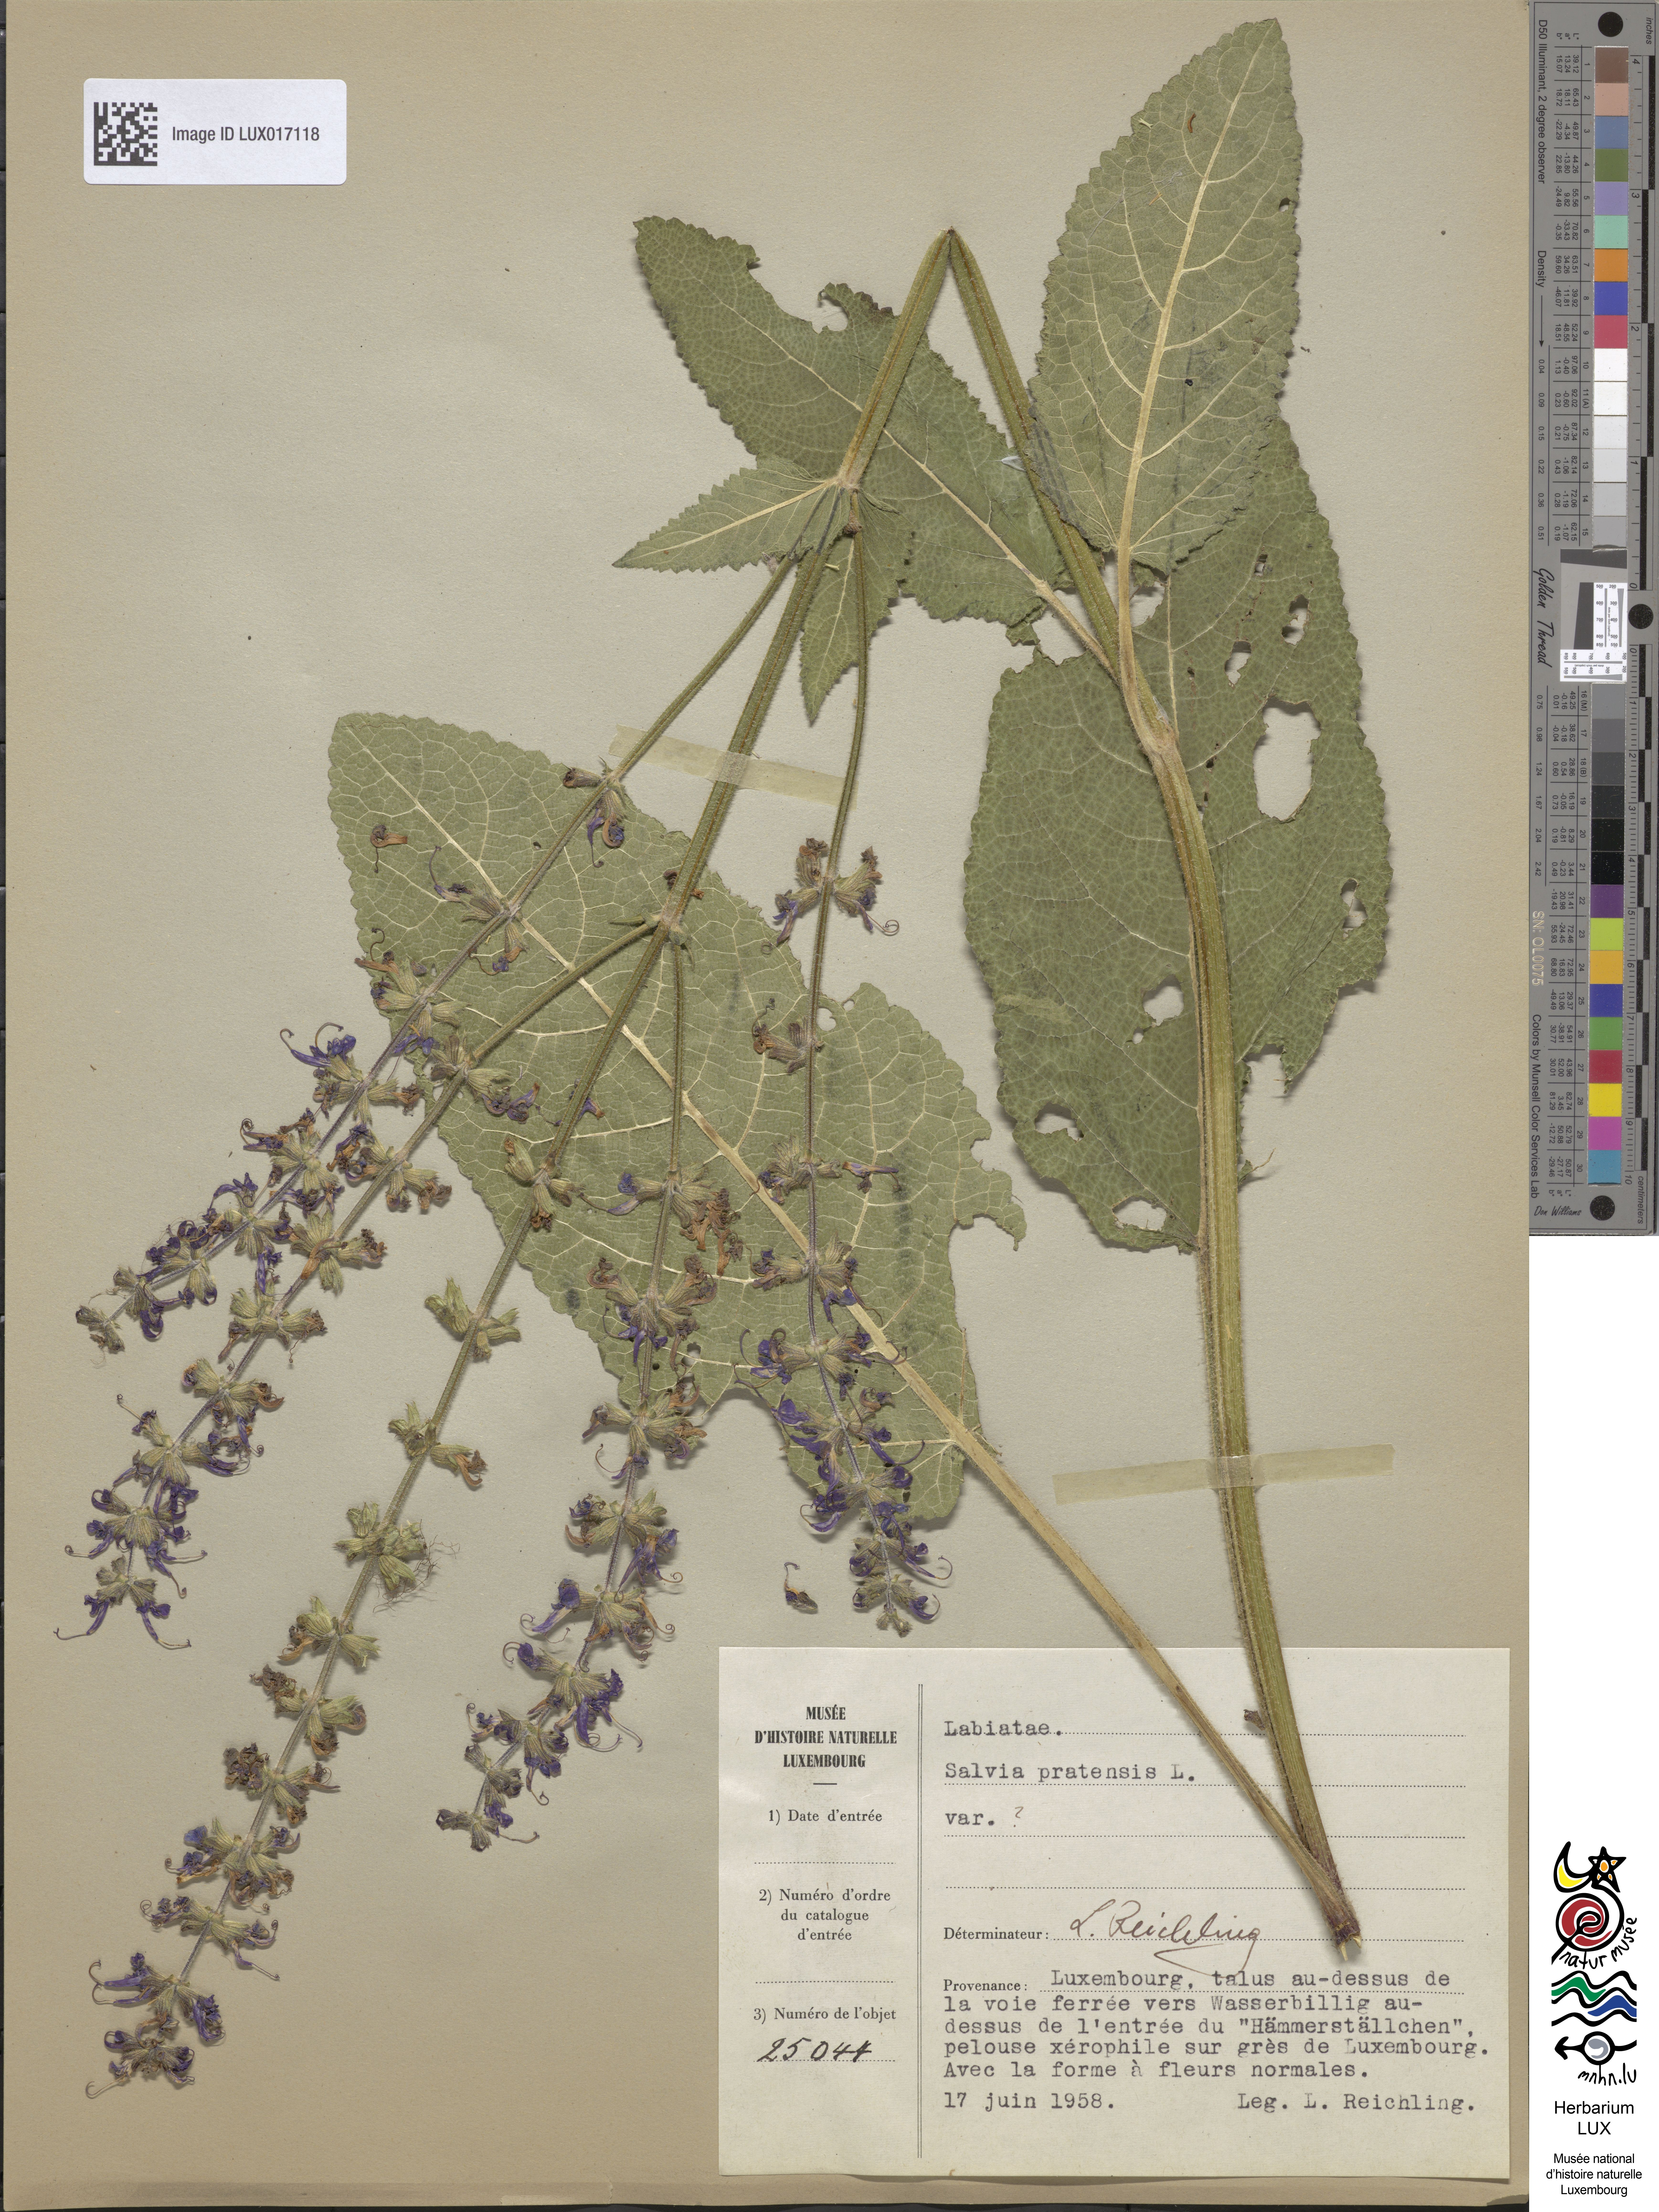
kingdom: Plantae
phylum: Tracheophyta
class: Magnoliopsida
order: Lamiales
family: Lamiaceae
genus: Salvia
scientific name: Salvia pratensis
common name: Meadow sage
